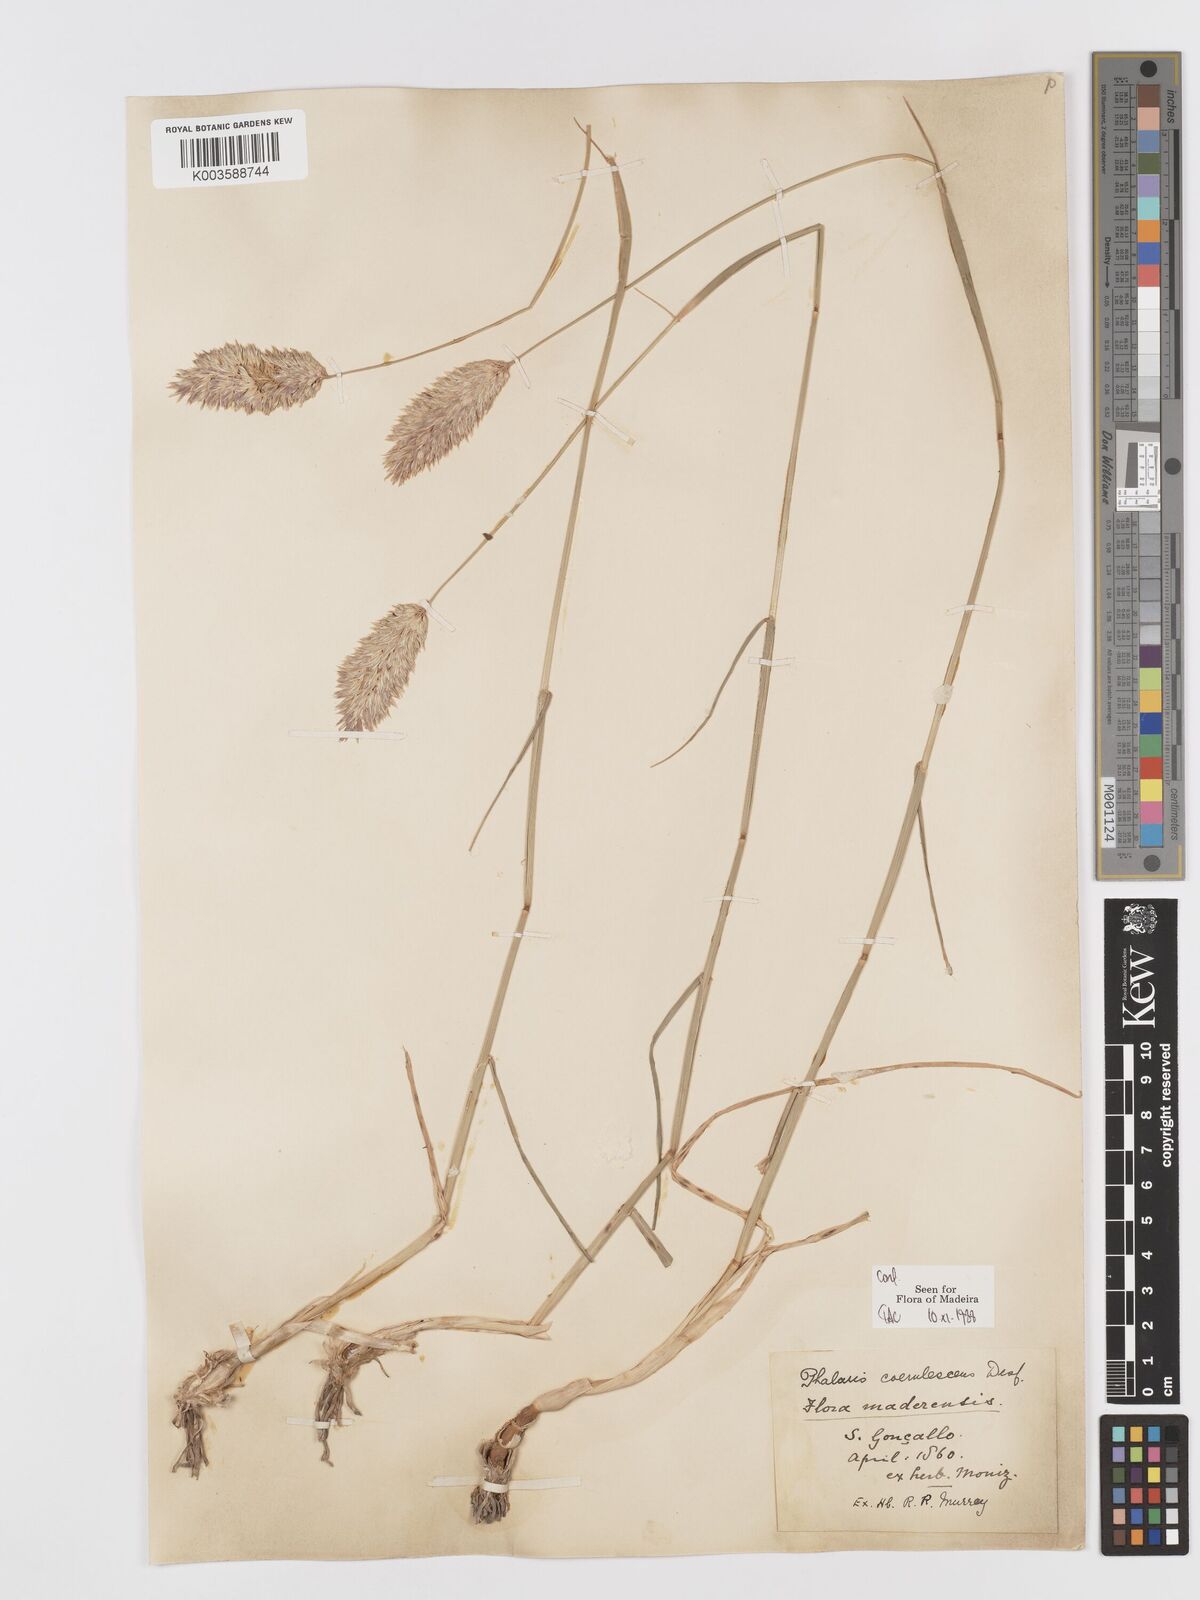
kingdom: Plantae
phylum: Tracheophyta
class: Liliopsida
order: Poales
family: Poaceae
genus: Phalaris
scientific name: Phalaris coerulescens
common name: Sunolgrass
